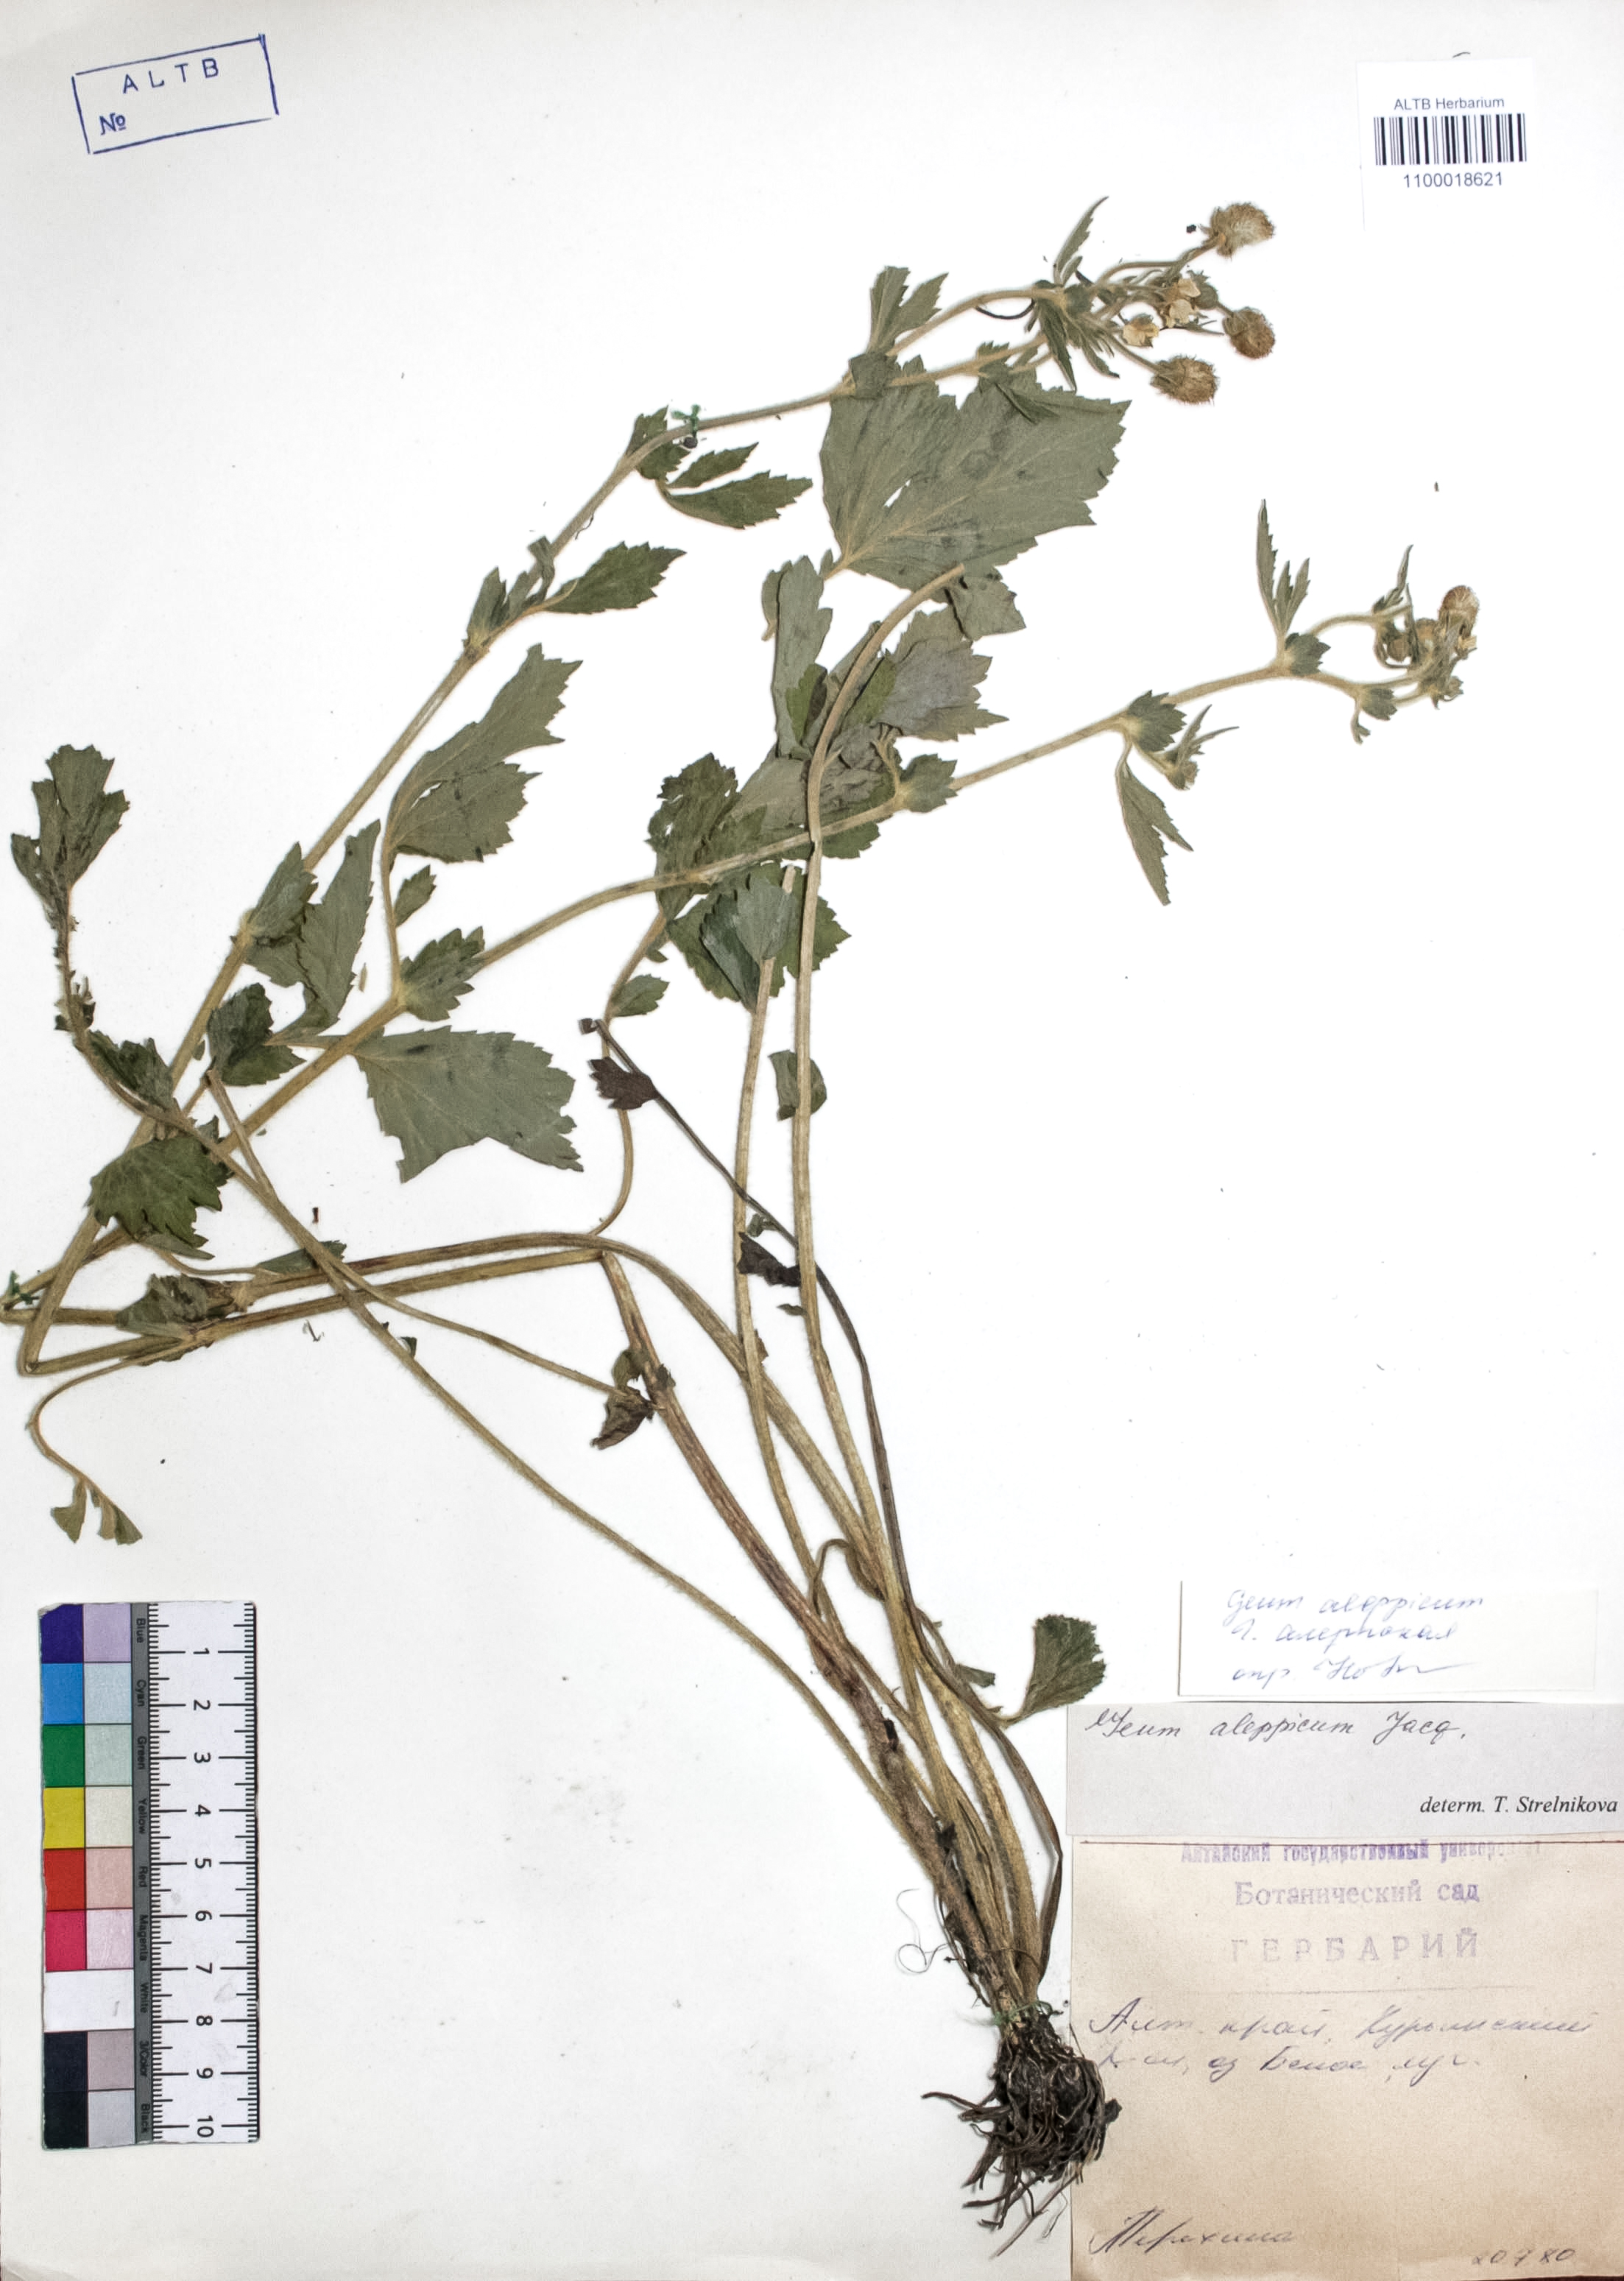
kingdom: Plantae
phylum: Tracheophyta
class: Magnoliopsida
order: Rosales
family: Rosaceae
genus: Geum
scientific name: Geum aleppicum
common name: Yellow avens
